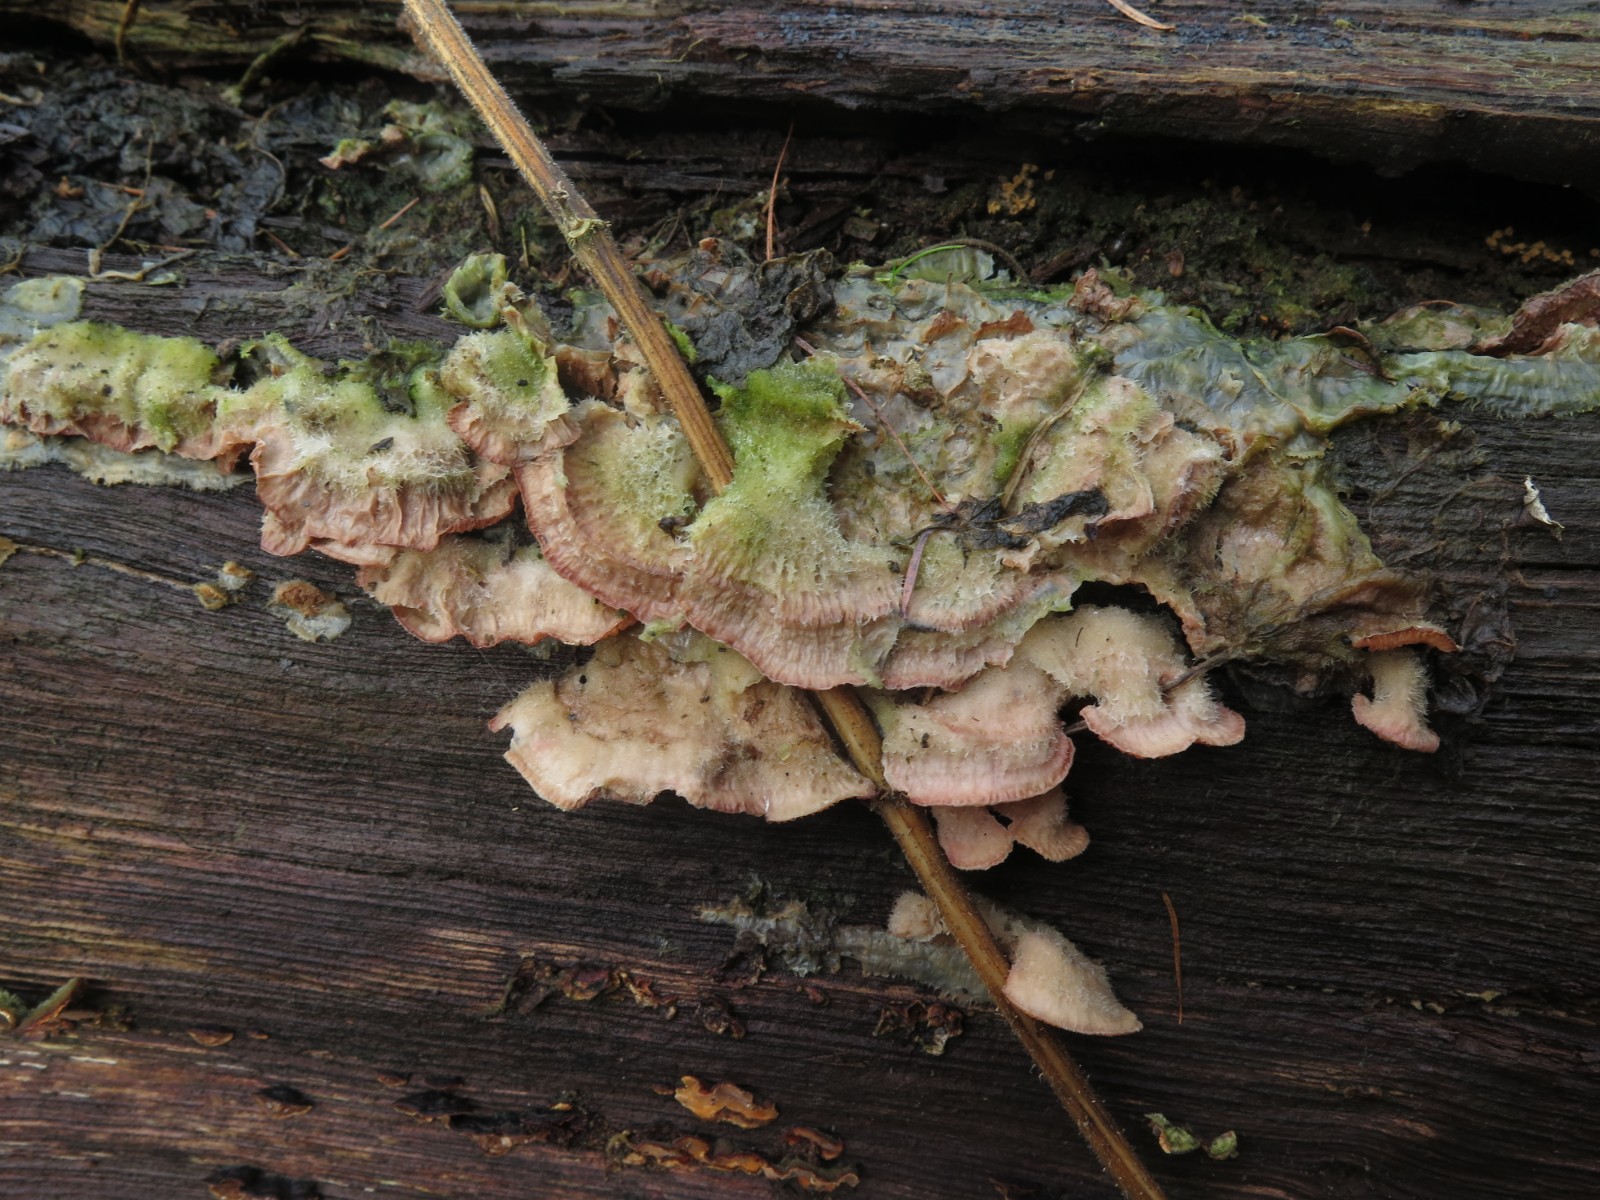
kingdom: Fungi
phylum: Basidiomycota
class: Agaricomycetes
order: Polyporales
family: Meruliaceae
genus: Phlebia
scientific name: Phlebia tremellosa
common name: bævrende åresvamp
